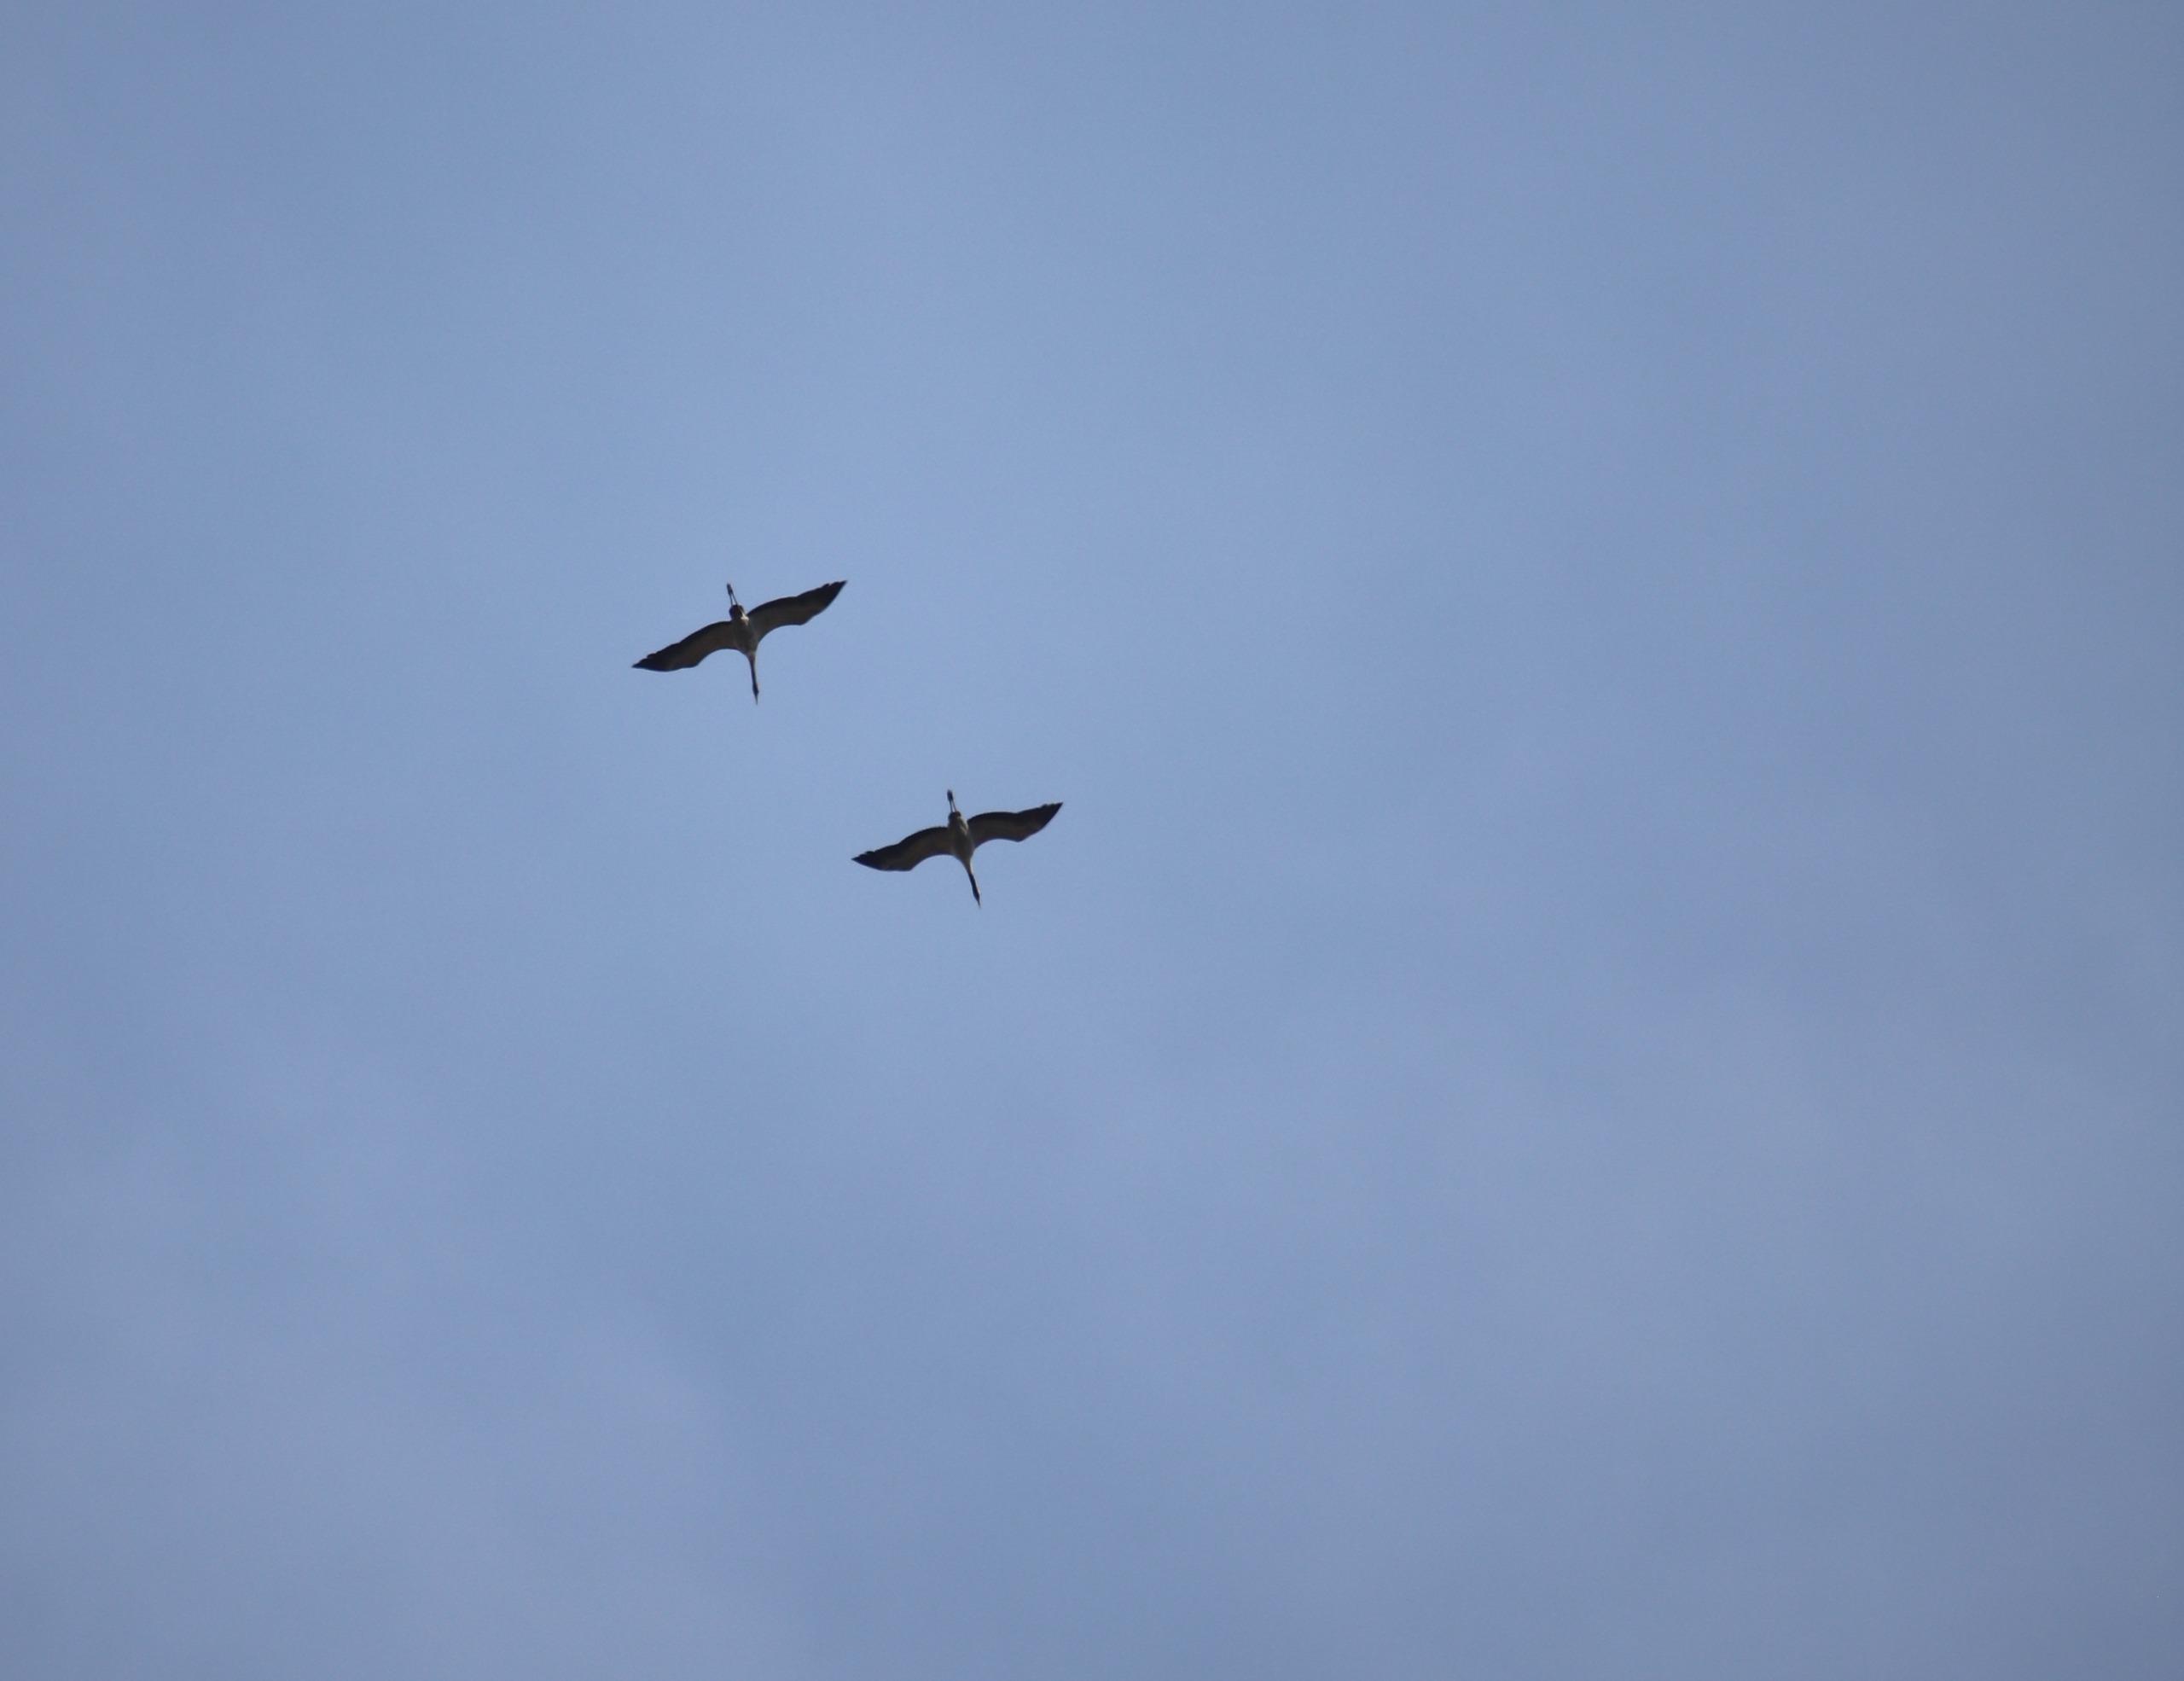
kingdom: Animalia
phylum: Chordata
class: Aves
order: Gruiformes
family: Gruidae
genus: Grus
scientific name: Grus grus
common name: Trane
